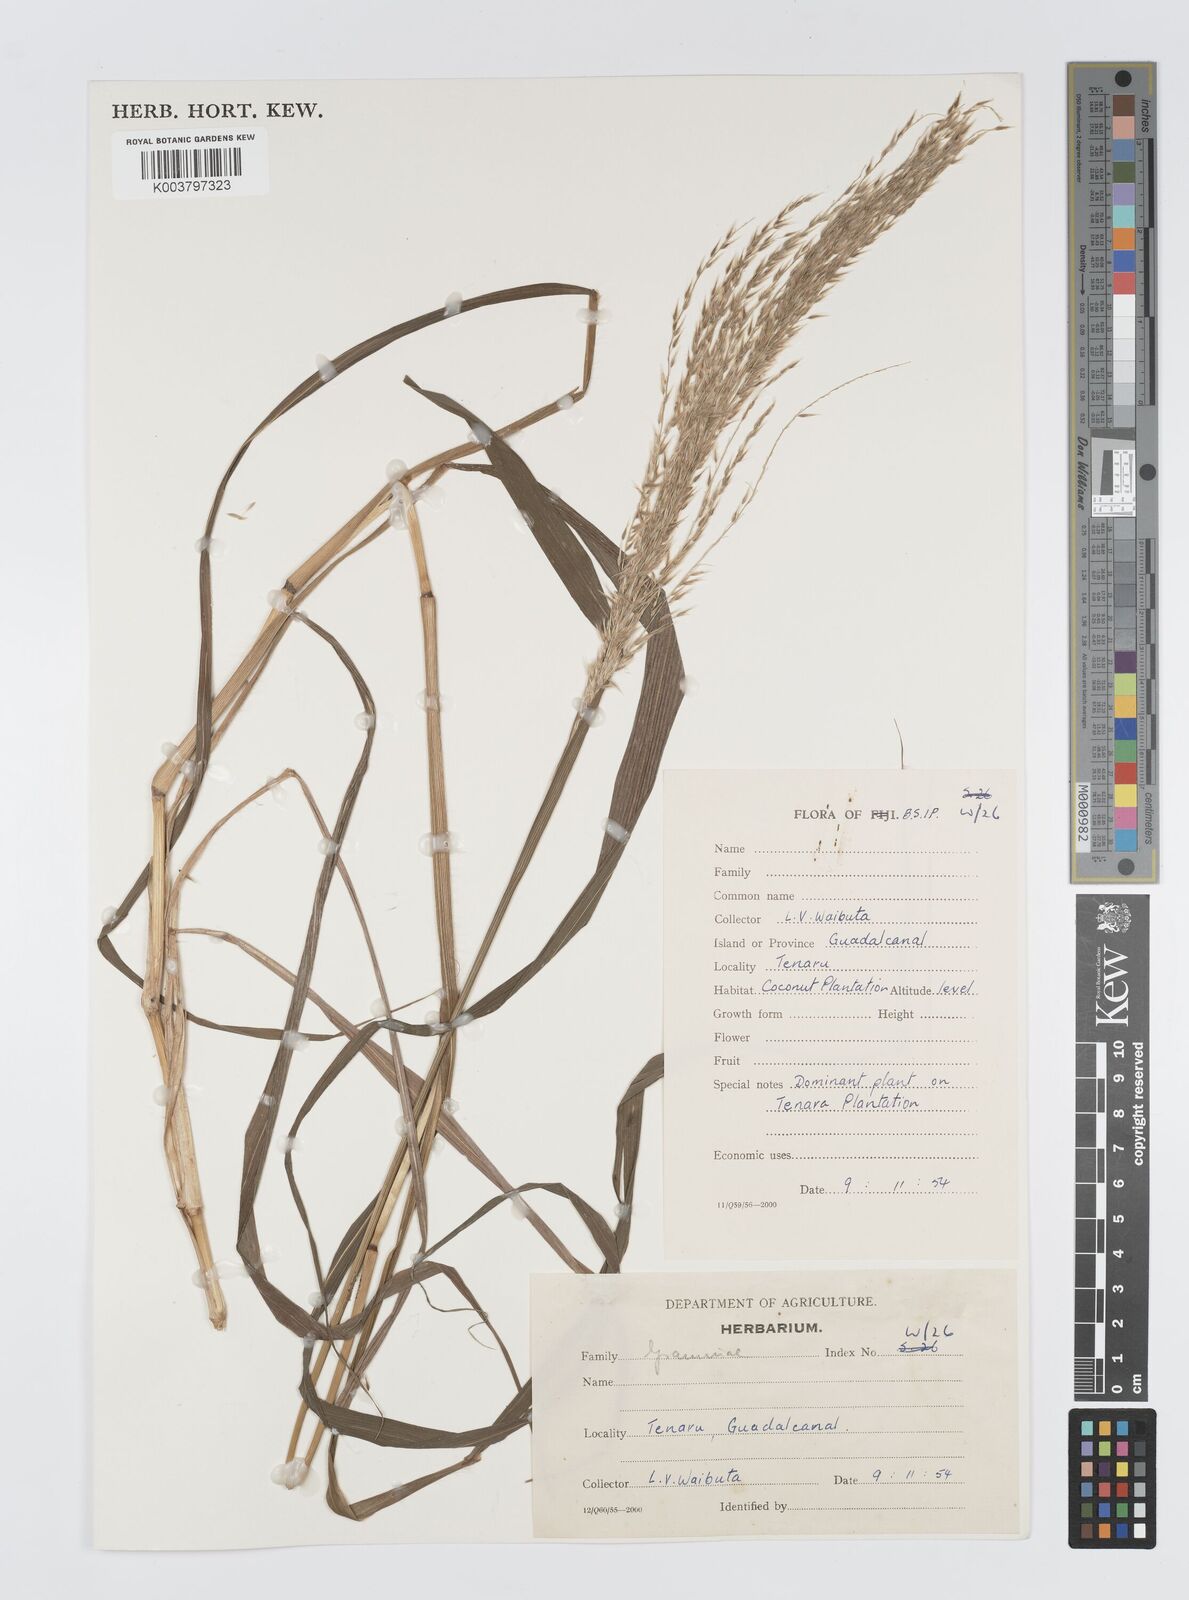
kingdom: Plantae
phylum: Tracheophyta
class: Liliopsida
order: Poales
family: Poaceae
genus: Digitaria
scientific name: Digitaria insularis
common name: Sourgrass
